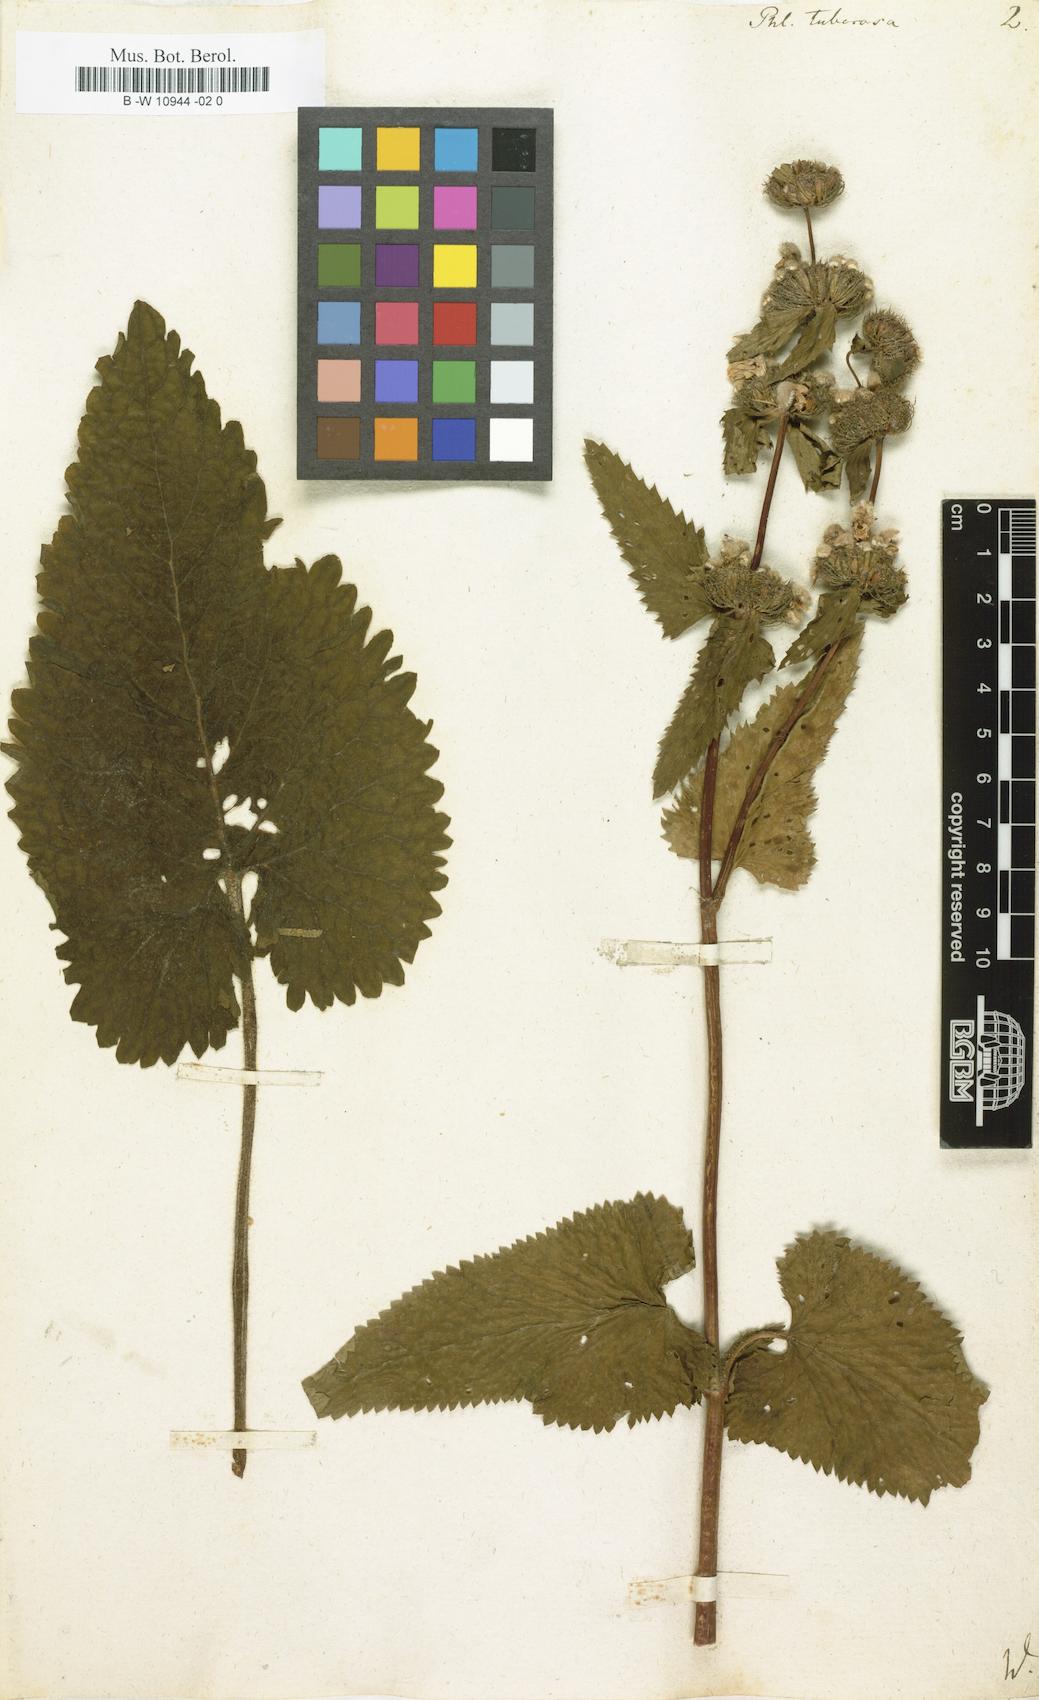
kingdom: Plantae
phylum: Tracheophyta
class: Magnoliopsida
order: Lamiales
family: Lamiaceae
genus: Phlomoides
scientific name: Phlomoides tuberosa
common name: Tuberous jerusalem sage
